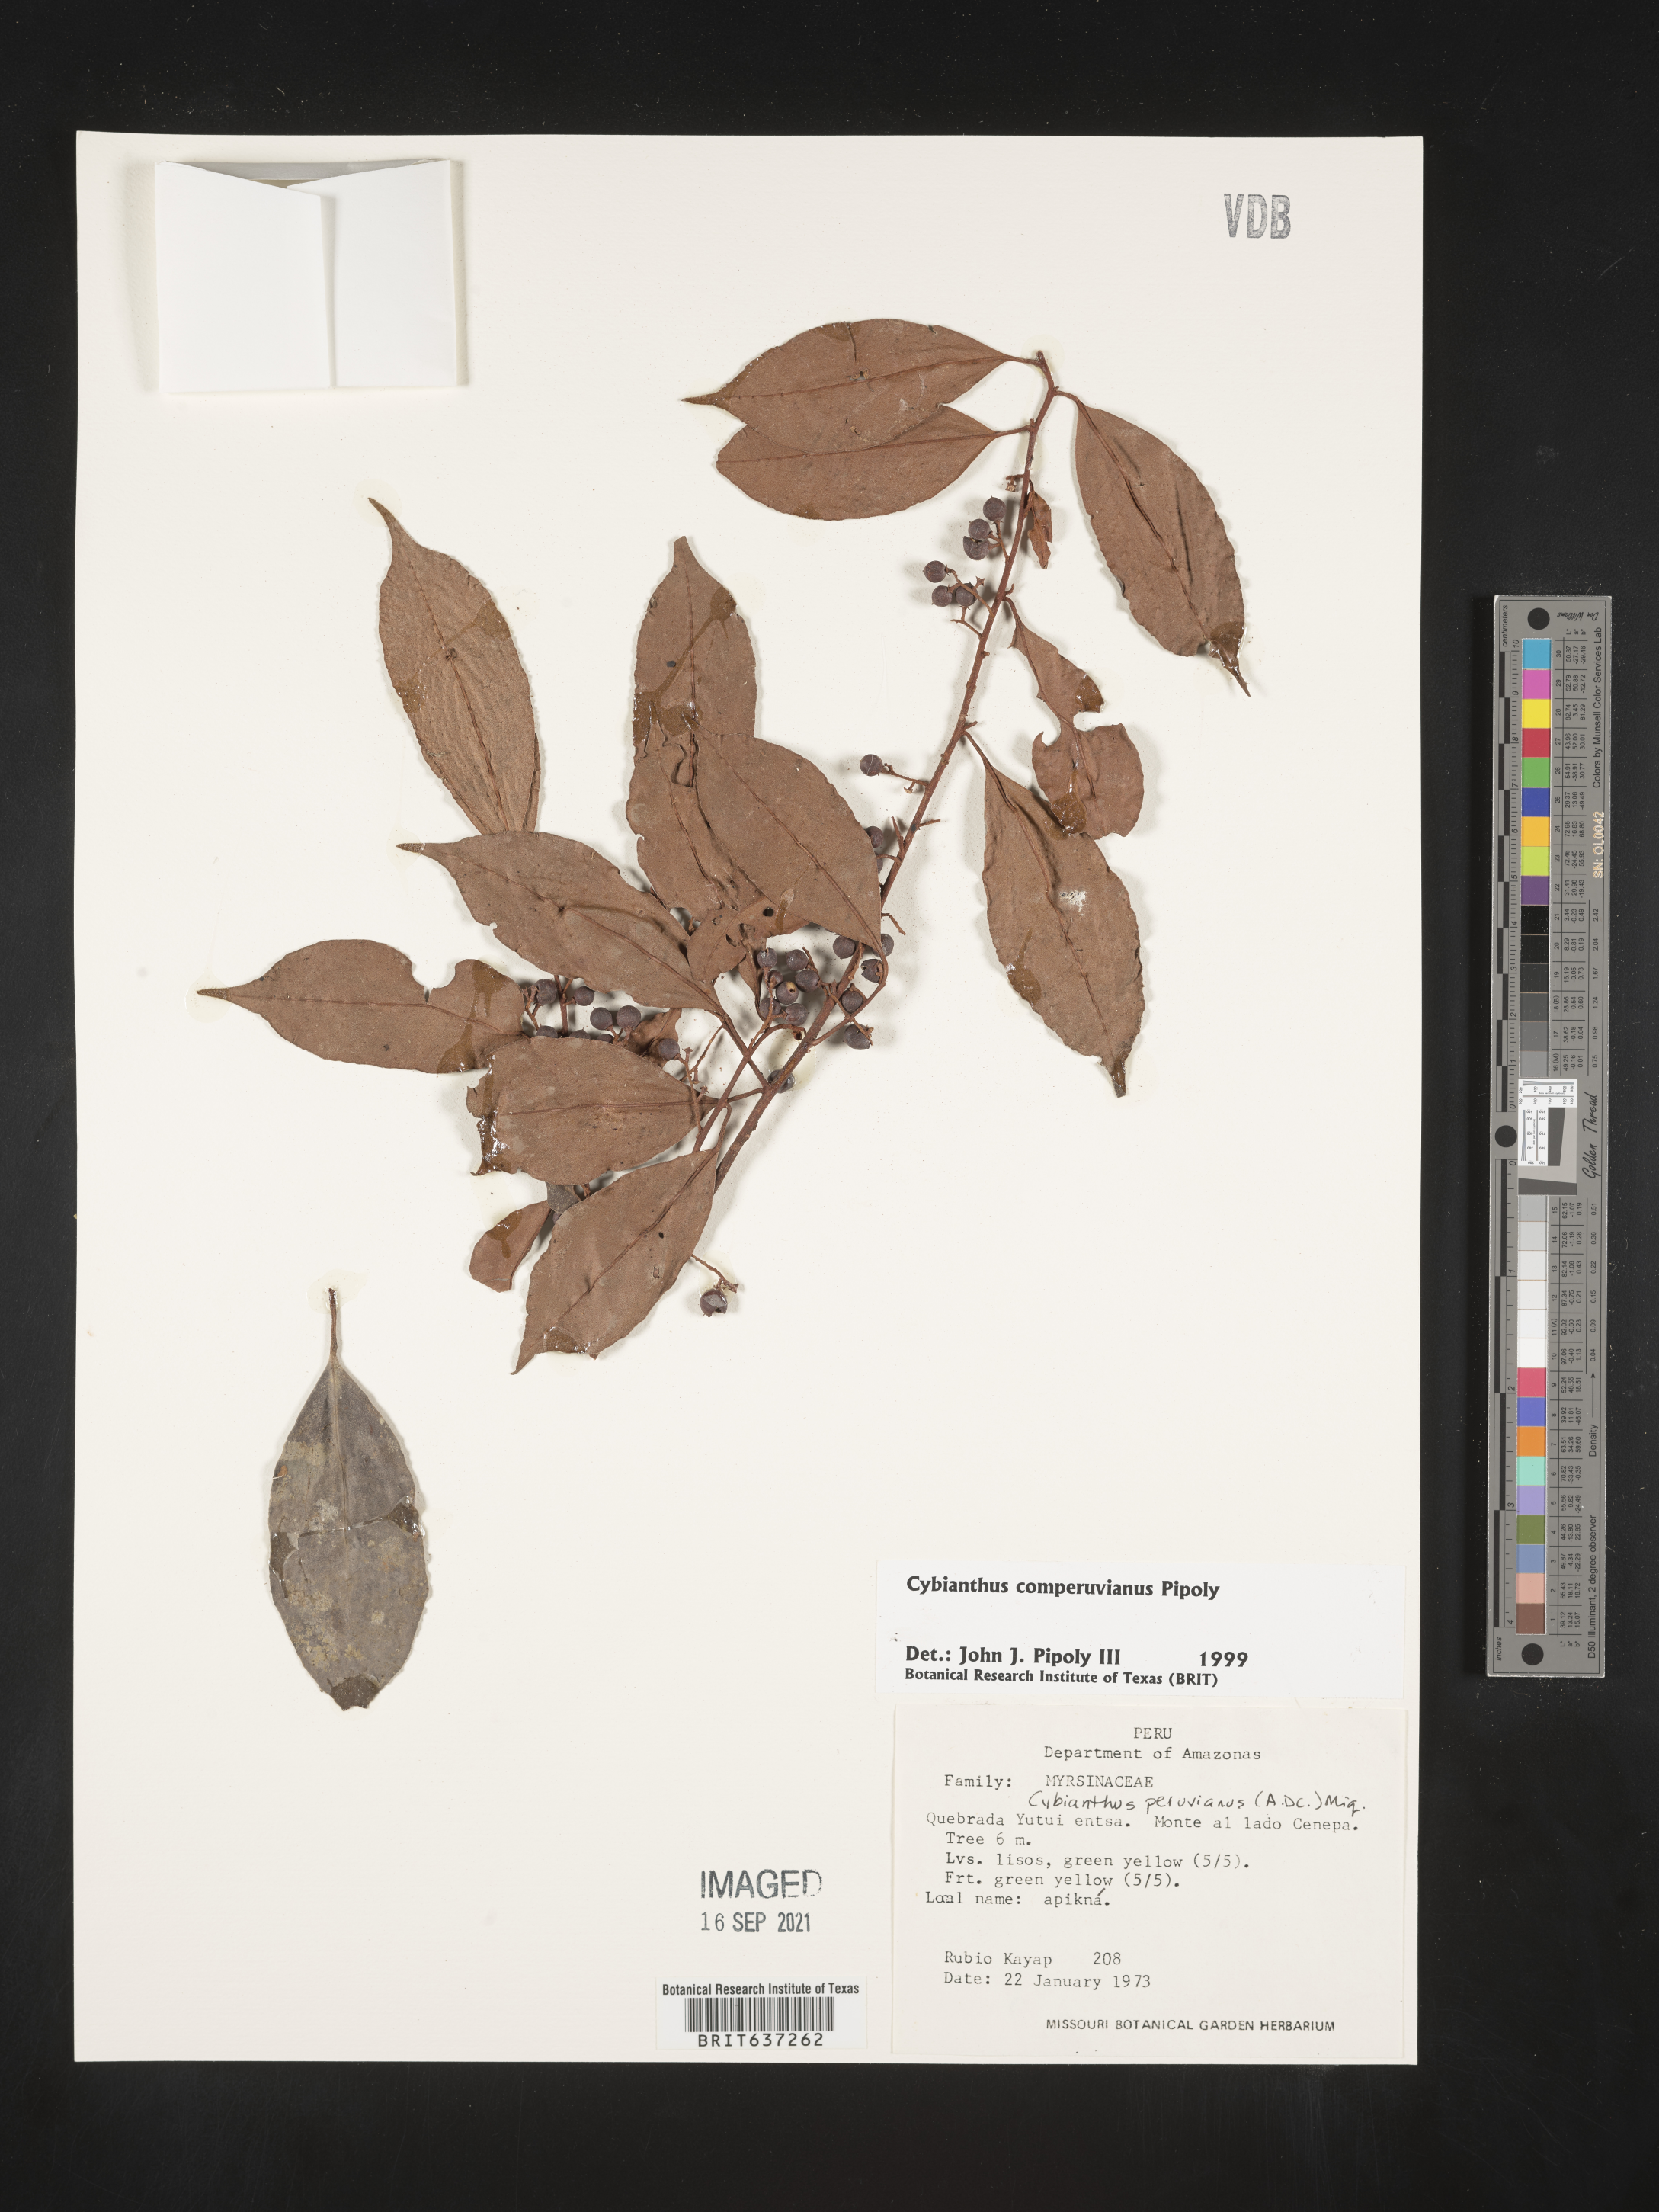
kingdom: Plantae
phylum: Tracheophyta
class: Magnoliopsida
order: Ericales
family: Primulaceae
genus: Cybianthus
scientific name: Cybianthus
